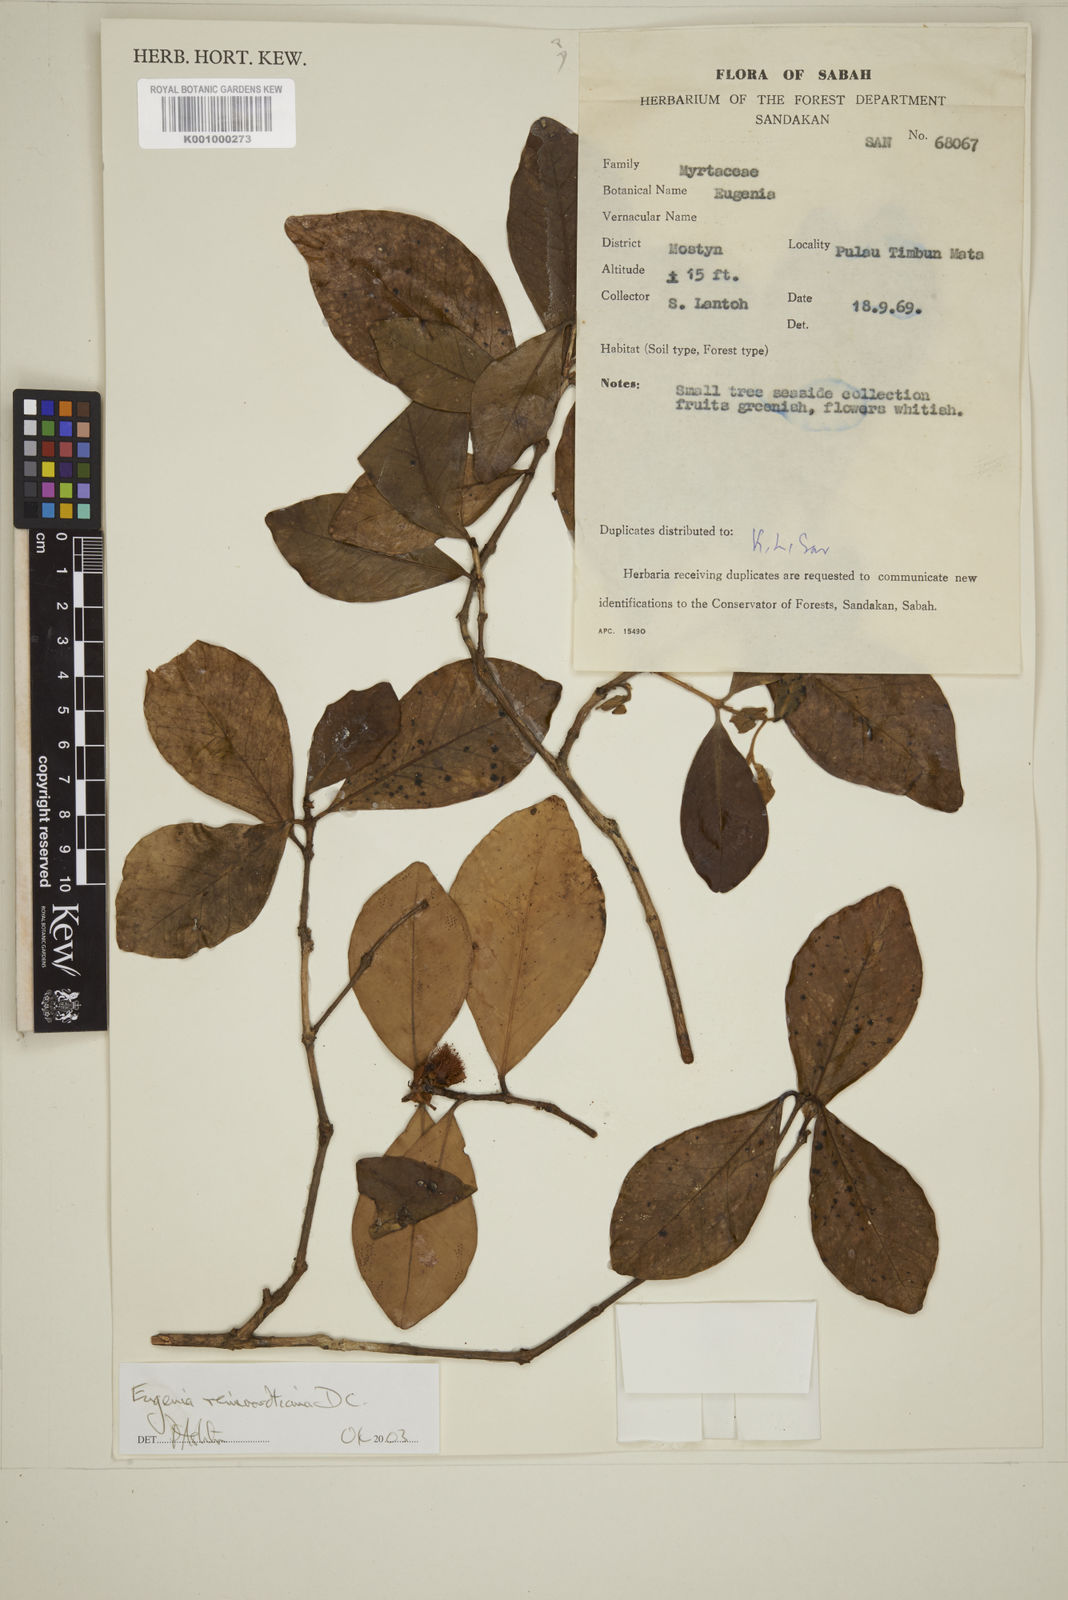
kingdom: Plantae
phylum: Tracheophyta
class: Magnoliopsida
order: Myrtales
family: Myrtaceae
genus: Eugenia
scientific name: Eugenia reinwardtiana
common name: Cedar bay-cherry
